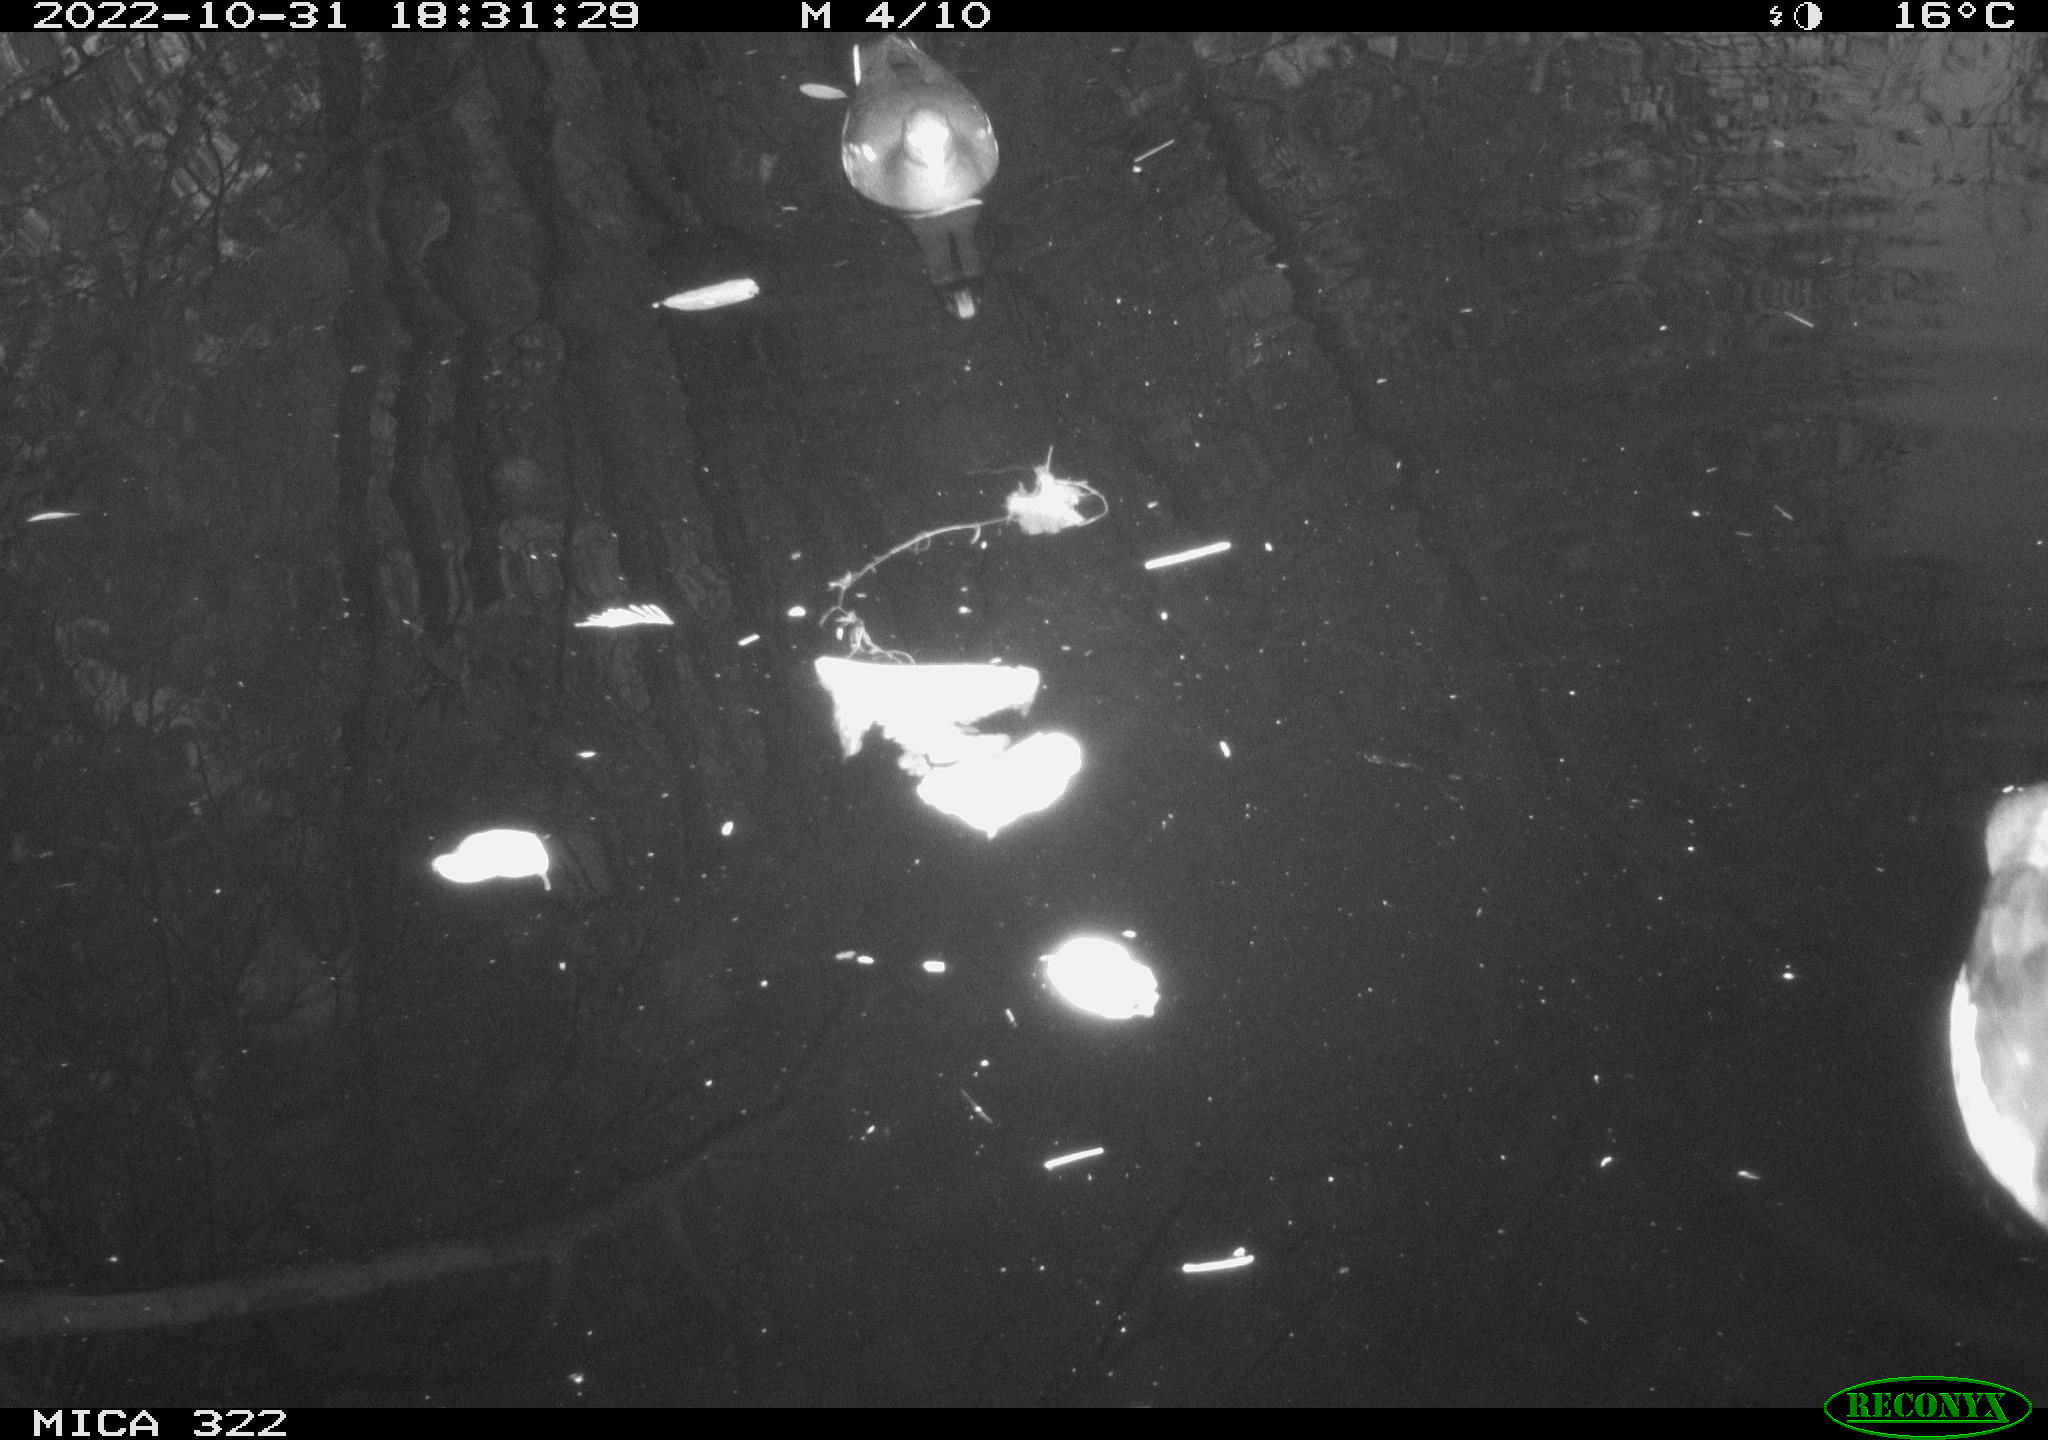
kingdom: Animalia
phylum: Chordata
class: Aves
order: Gruiformes
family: Rallidae
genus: Gallinula
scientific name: Gallinula chloropus
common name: Common moorhen
